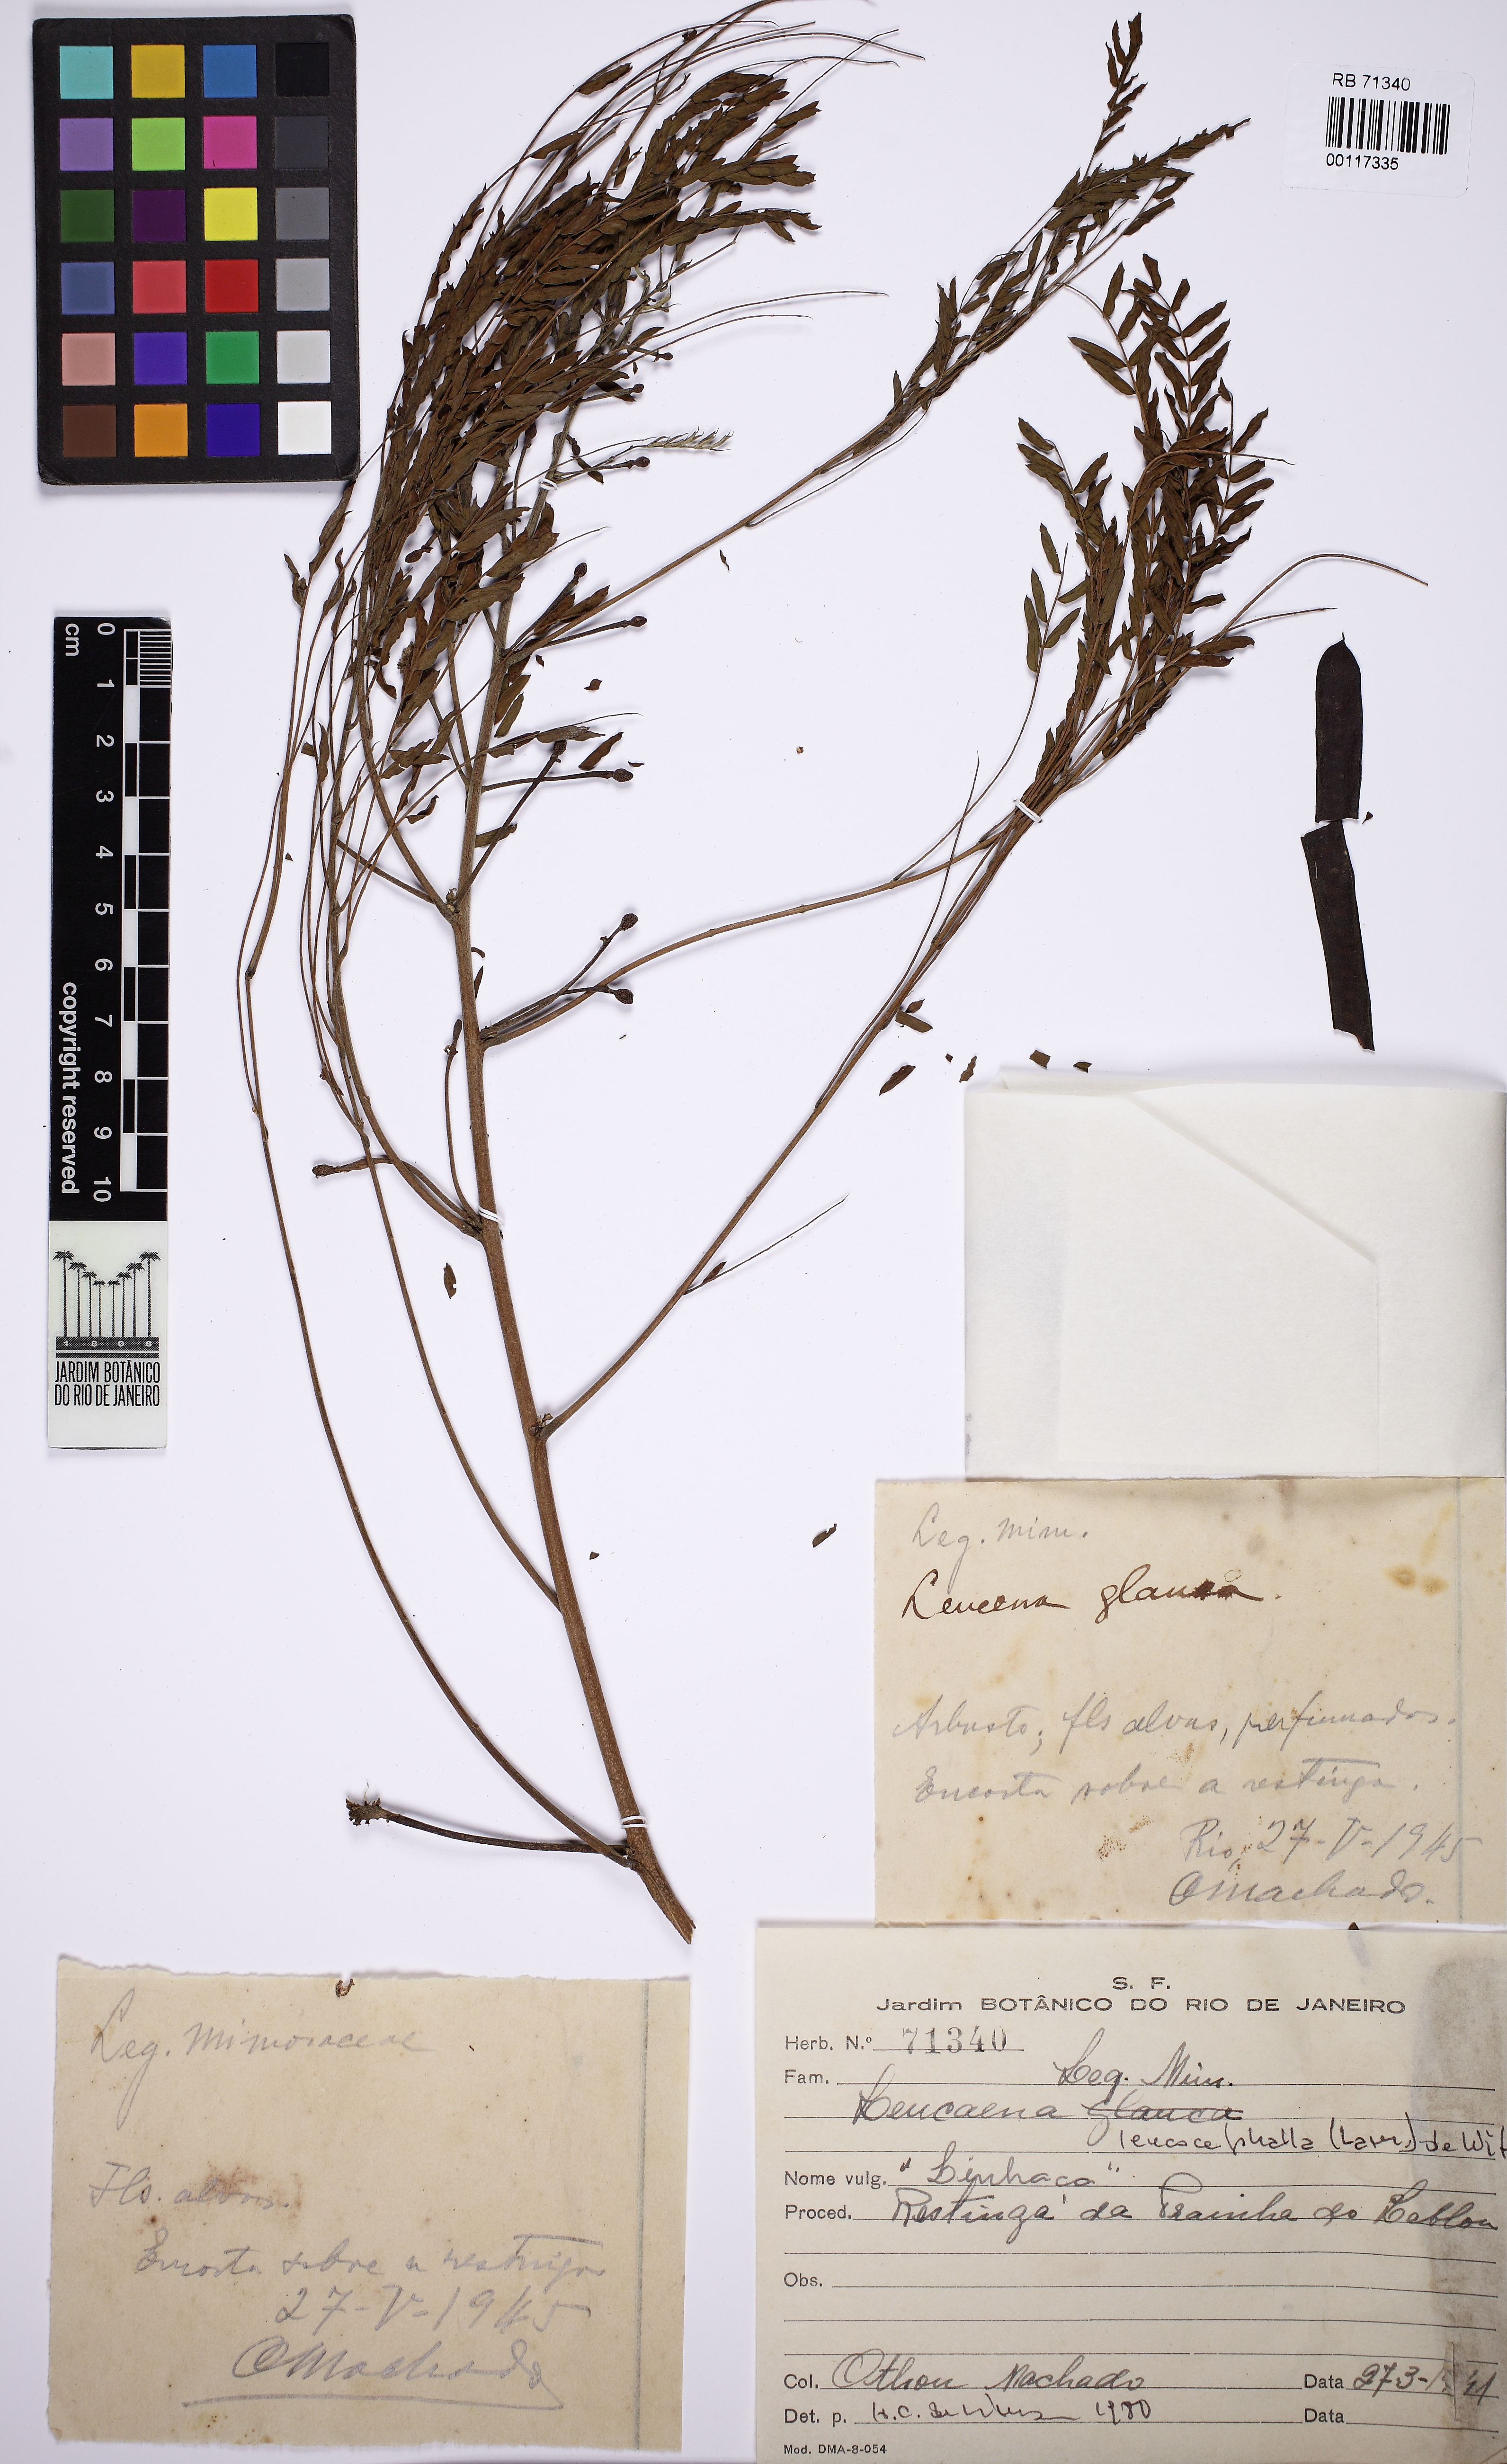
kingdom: Plantae
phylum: Tracheophyta
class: Magnoliopsida
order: Fabales
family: Fabaceae
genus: Leucaena
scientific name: Leucaena leucocephala
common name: White leadtree
